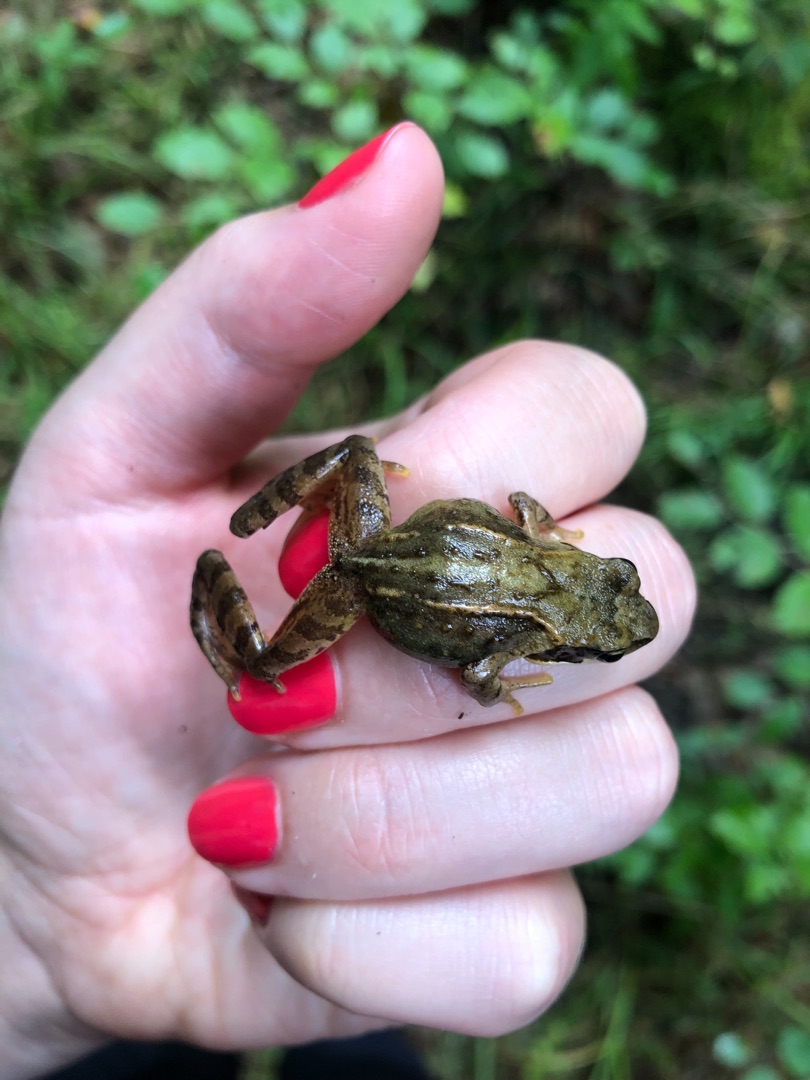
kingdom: Animalia
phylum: Chordata
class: Amphibia
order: Anura
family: Ranidae
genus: Rana
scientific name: Rana temporaria
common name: Butsnudet frø
